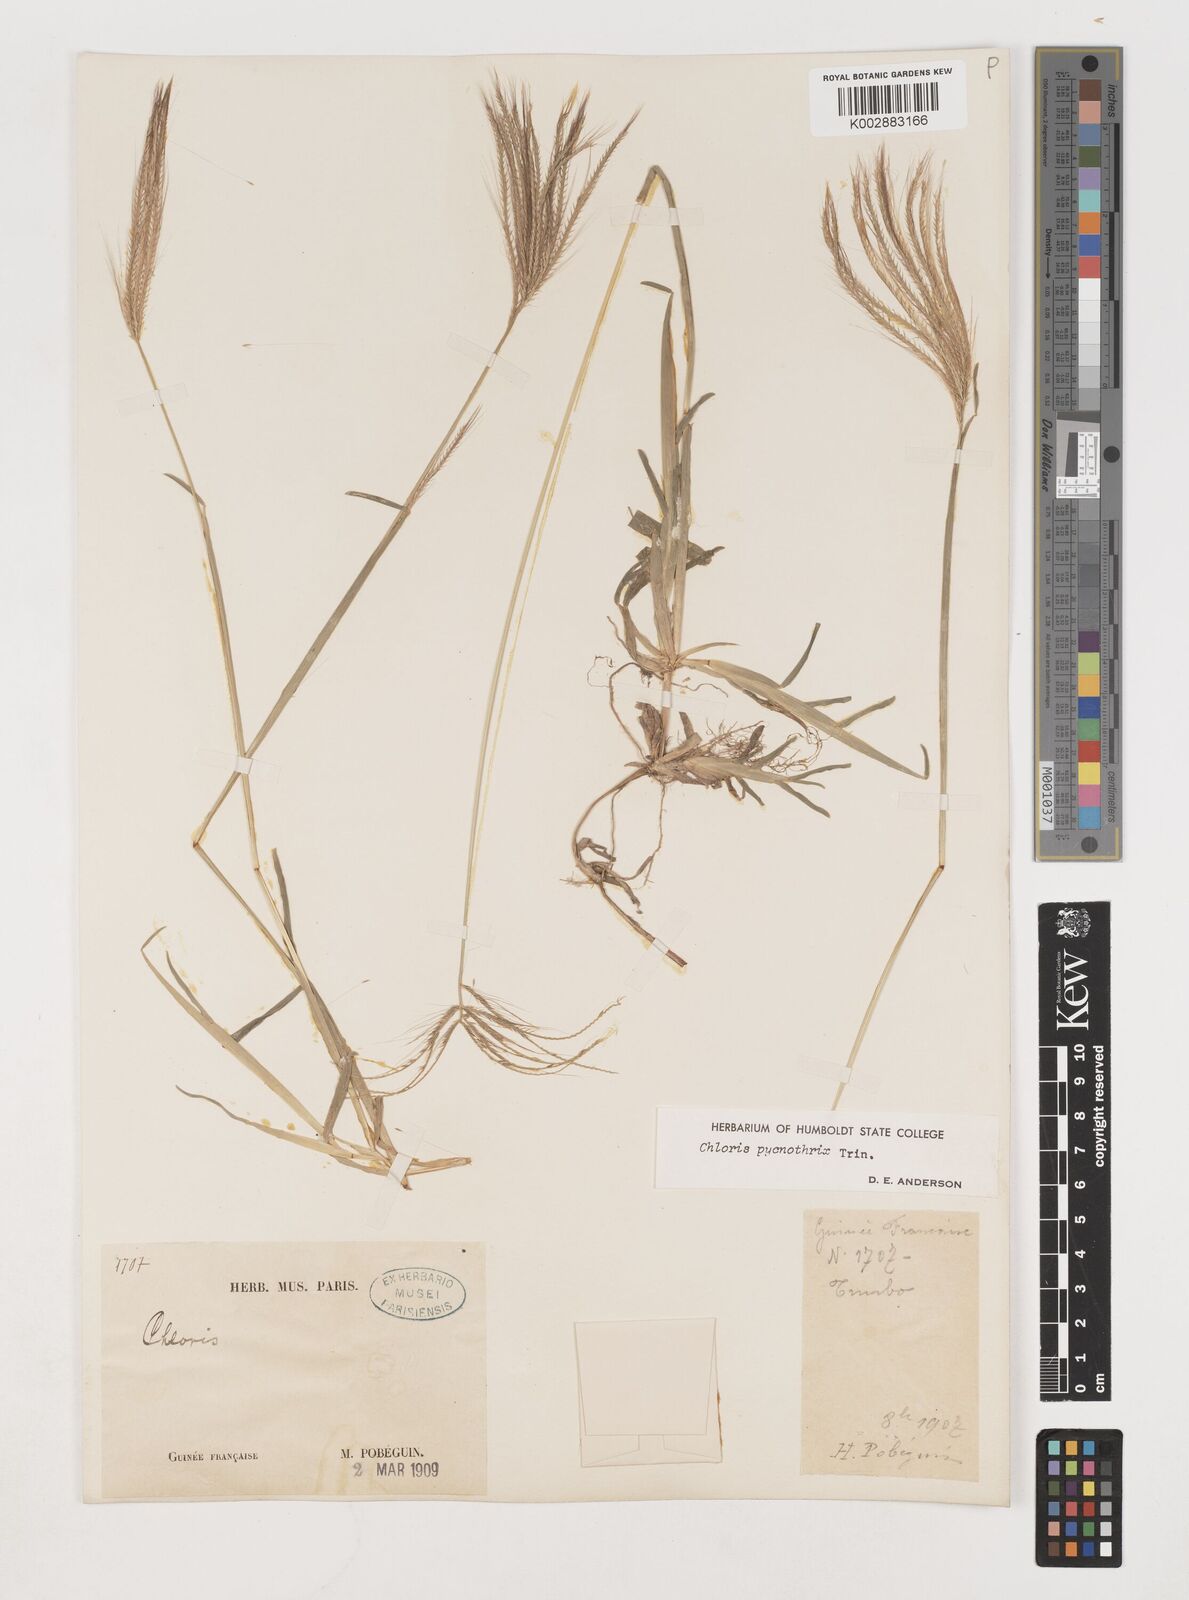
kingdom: Plantae
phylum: Tracheophyta
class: Liliopsida
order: Poales
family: Poaceae
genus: Chloris
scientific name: Chloris pycnothrix
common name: Spiderweb chloris
